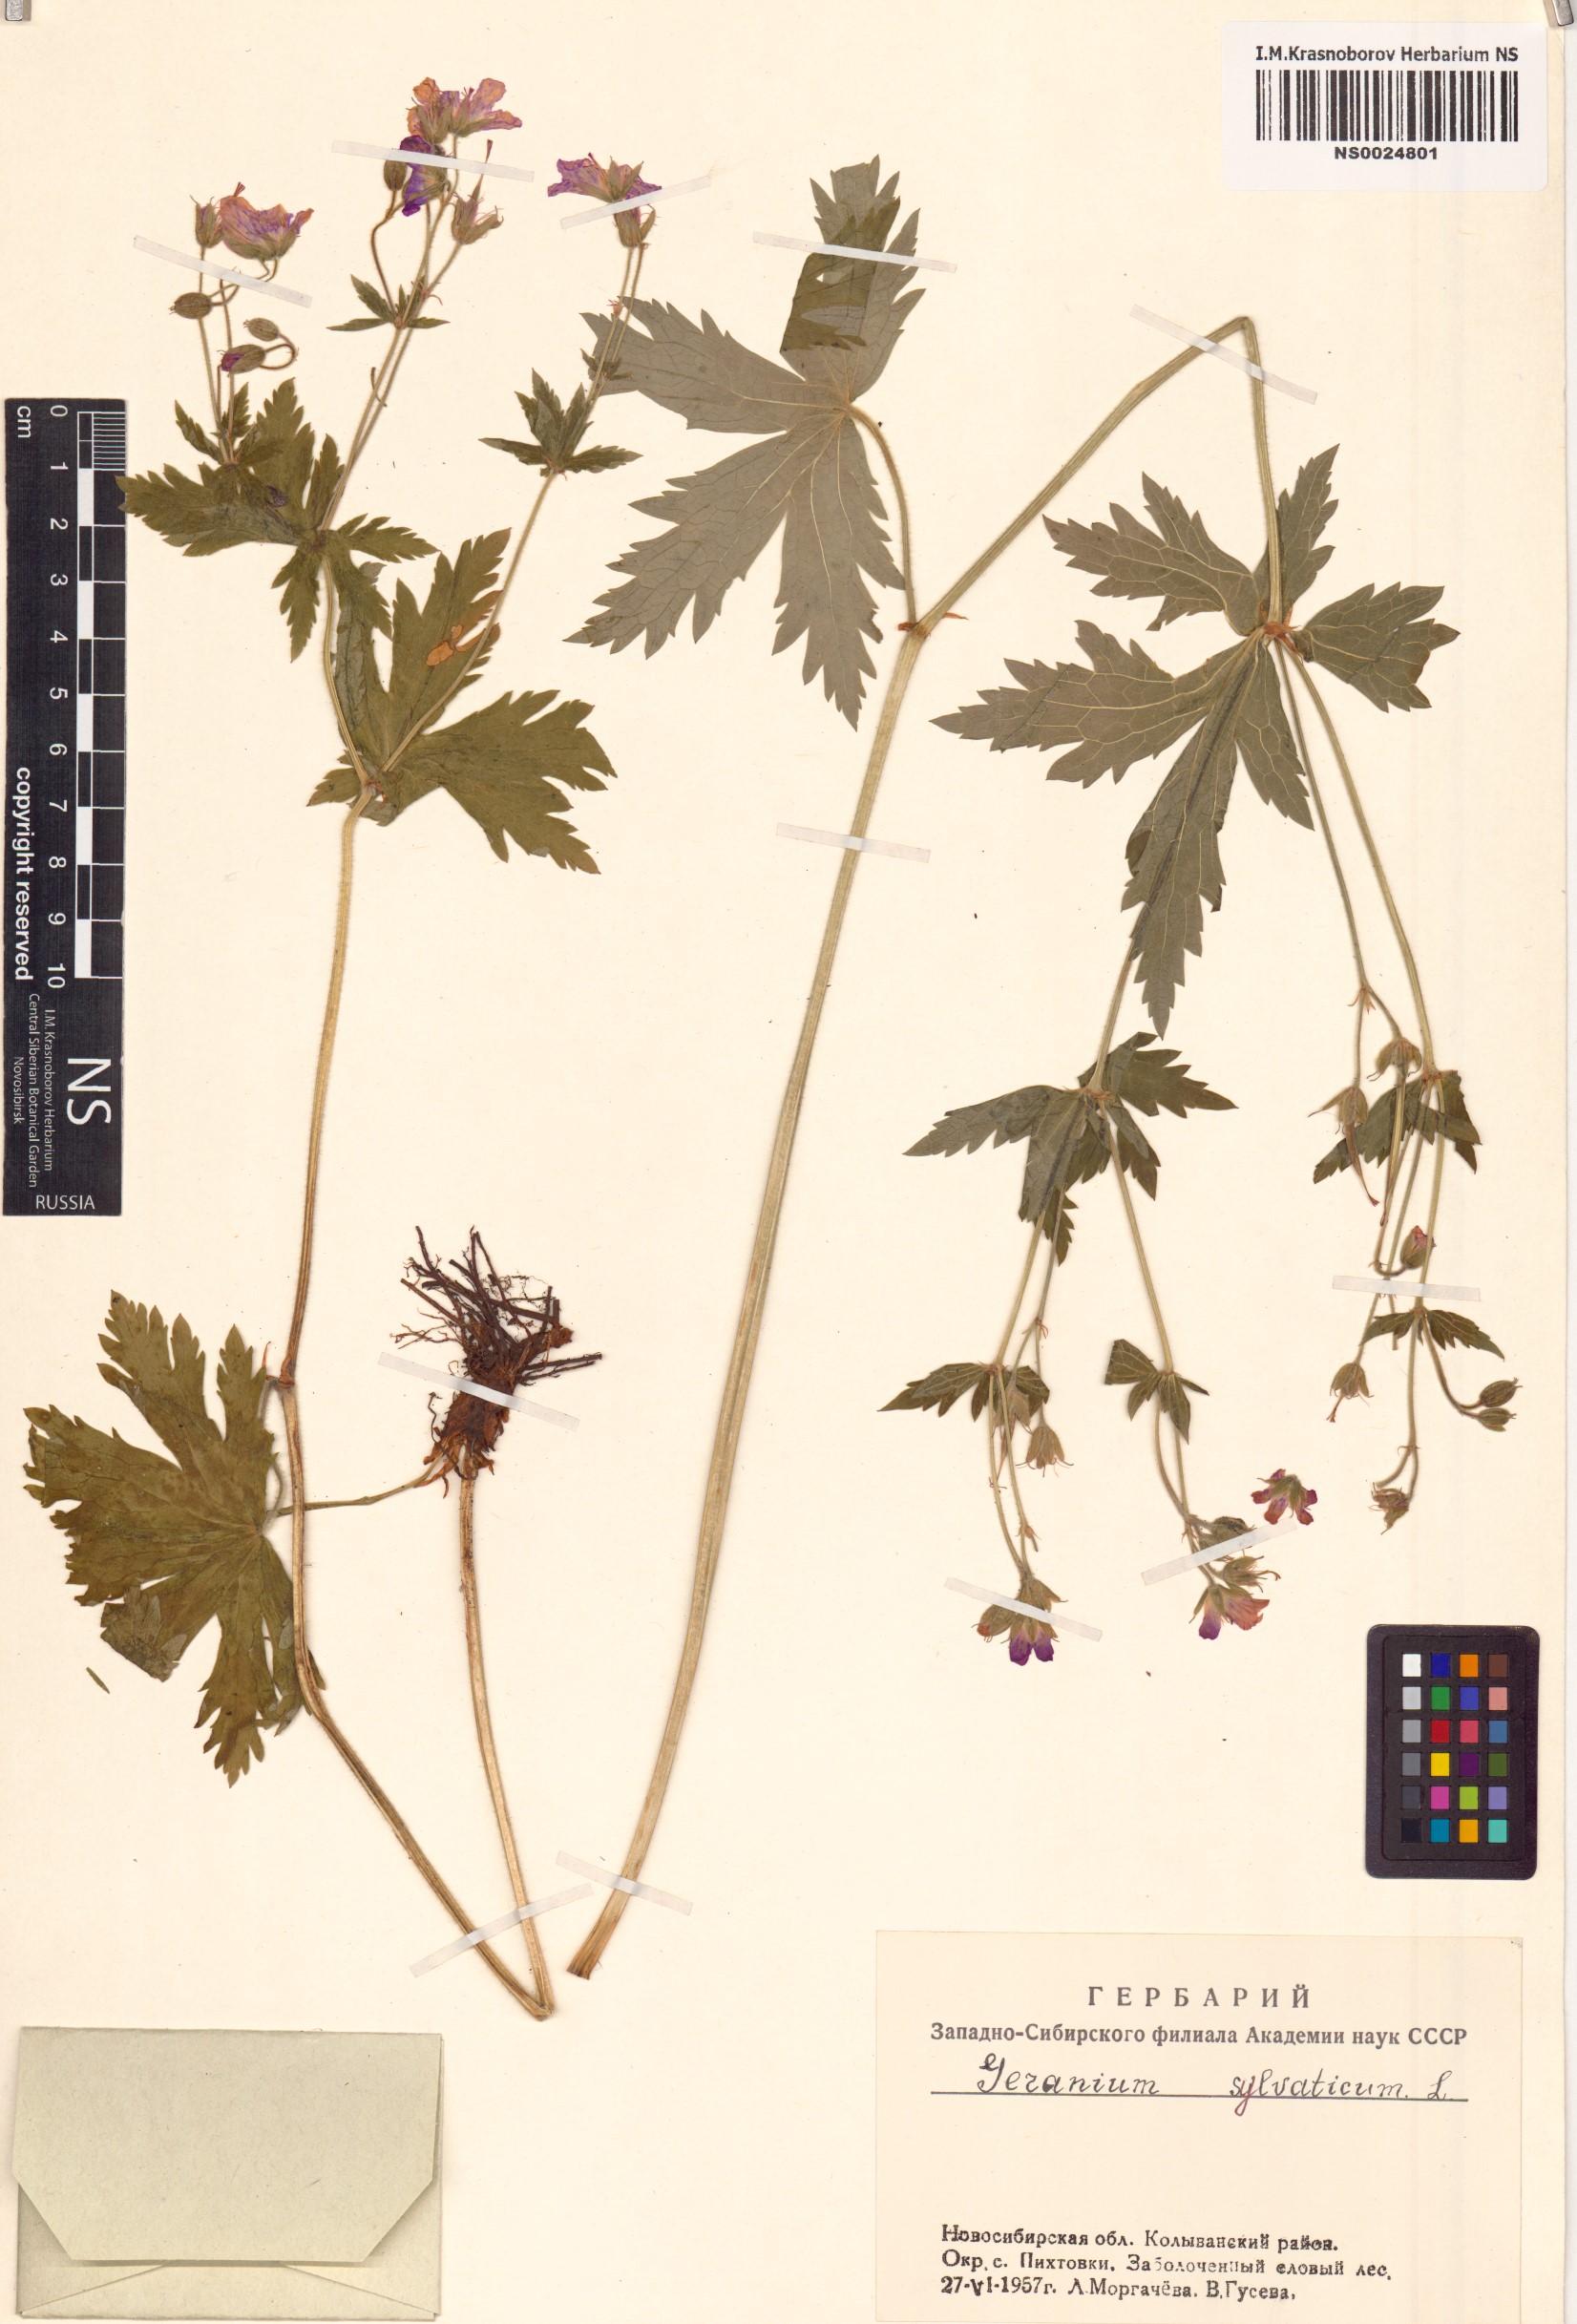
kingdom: Plantae
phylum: Tracheophyta
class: Magnoliopsida
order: Geraniales
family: Geraniaceae
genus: Geranium
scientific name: Geranium sylvaticum
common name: Wood crane's-bill
